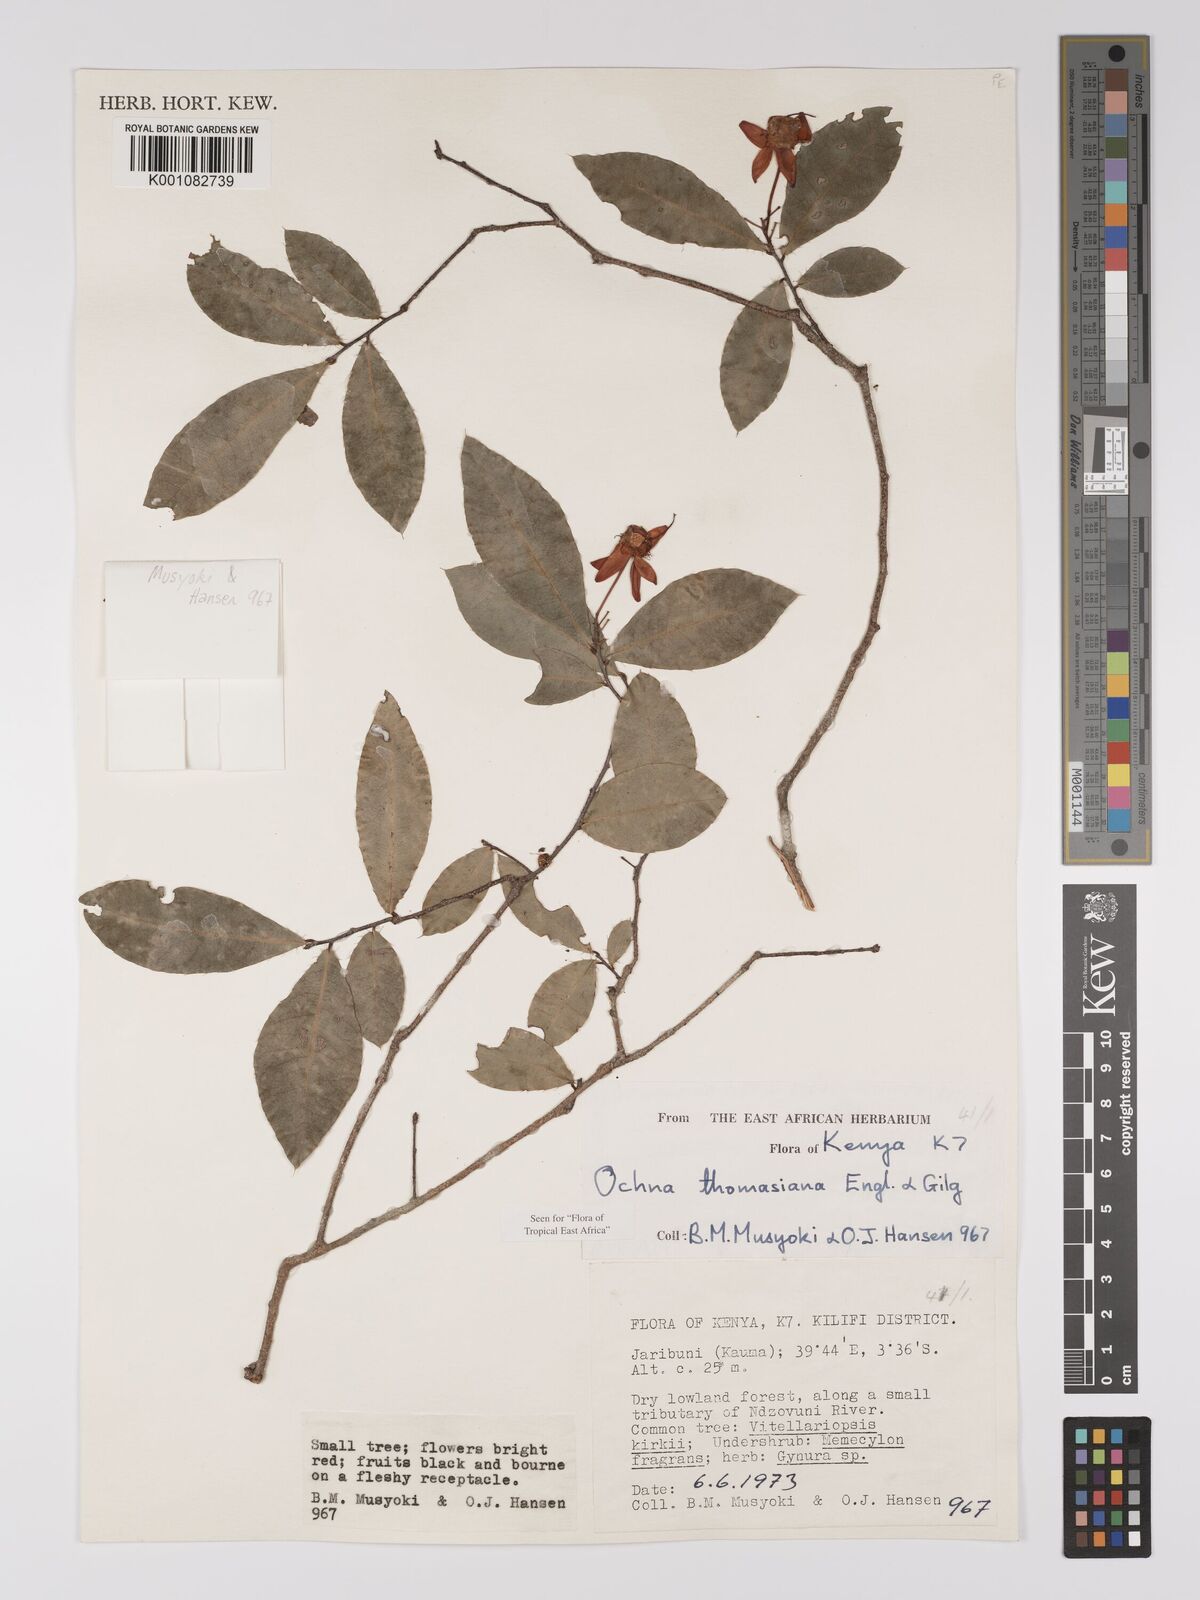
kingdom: Plantae
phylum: Tracheophyta
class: Magnoliopsida
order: Malpighiales
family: Ochnaceae
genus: Ochna
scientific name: Ochna thomasiana
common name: Thomas' bird's-eye bush
